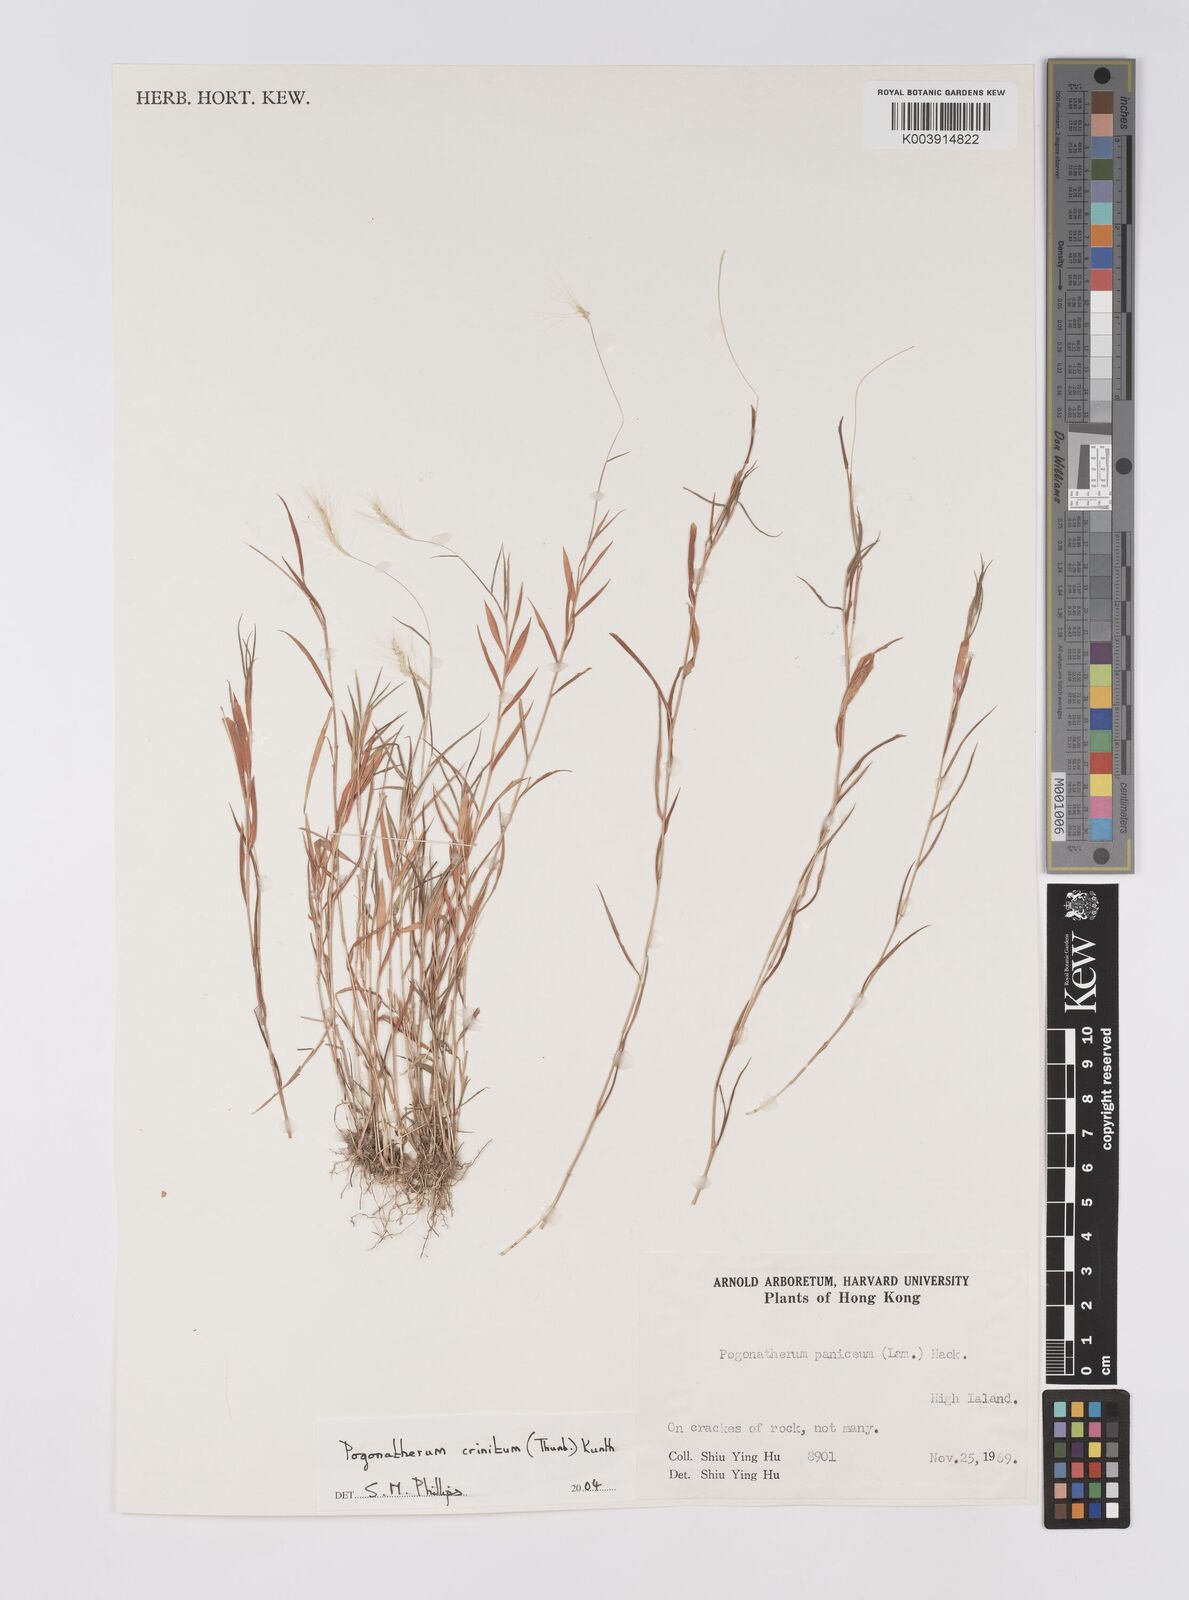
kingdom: Plantae
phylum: Tracheophyta
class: Liliopsida
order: Poales
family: Poaceae
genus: Pogonatherum
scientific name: Pogonatherum crinitum
